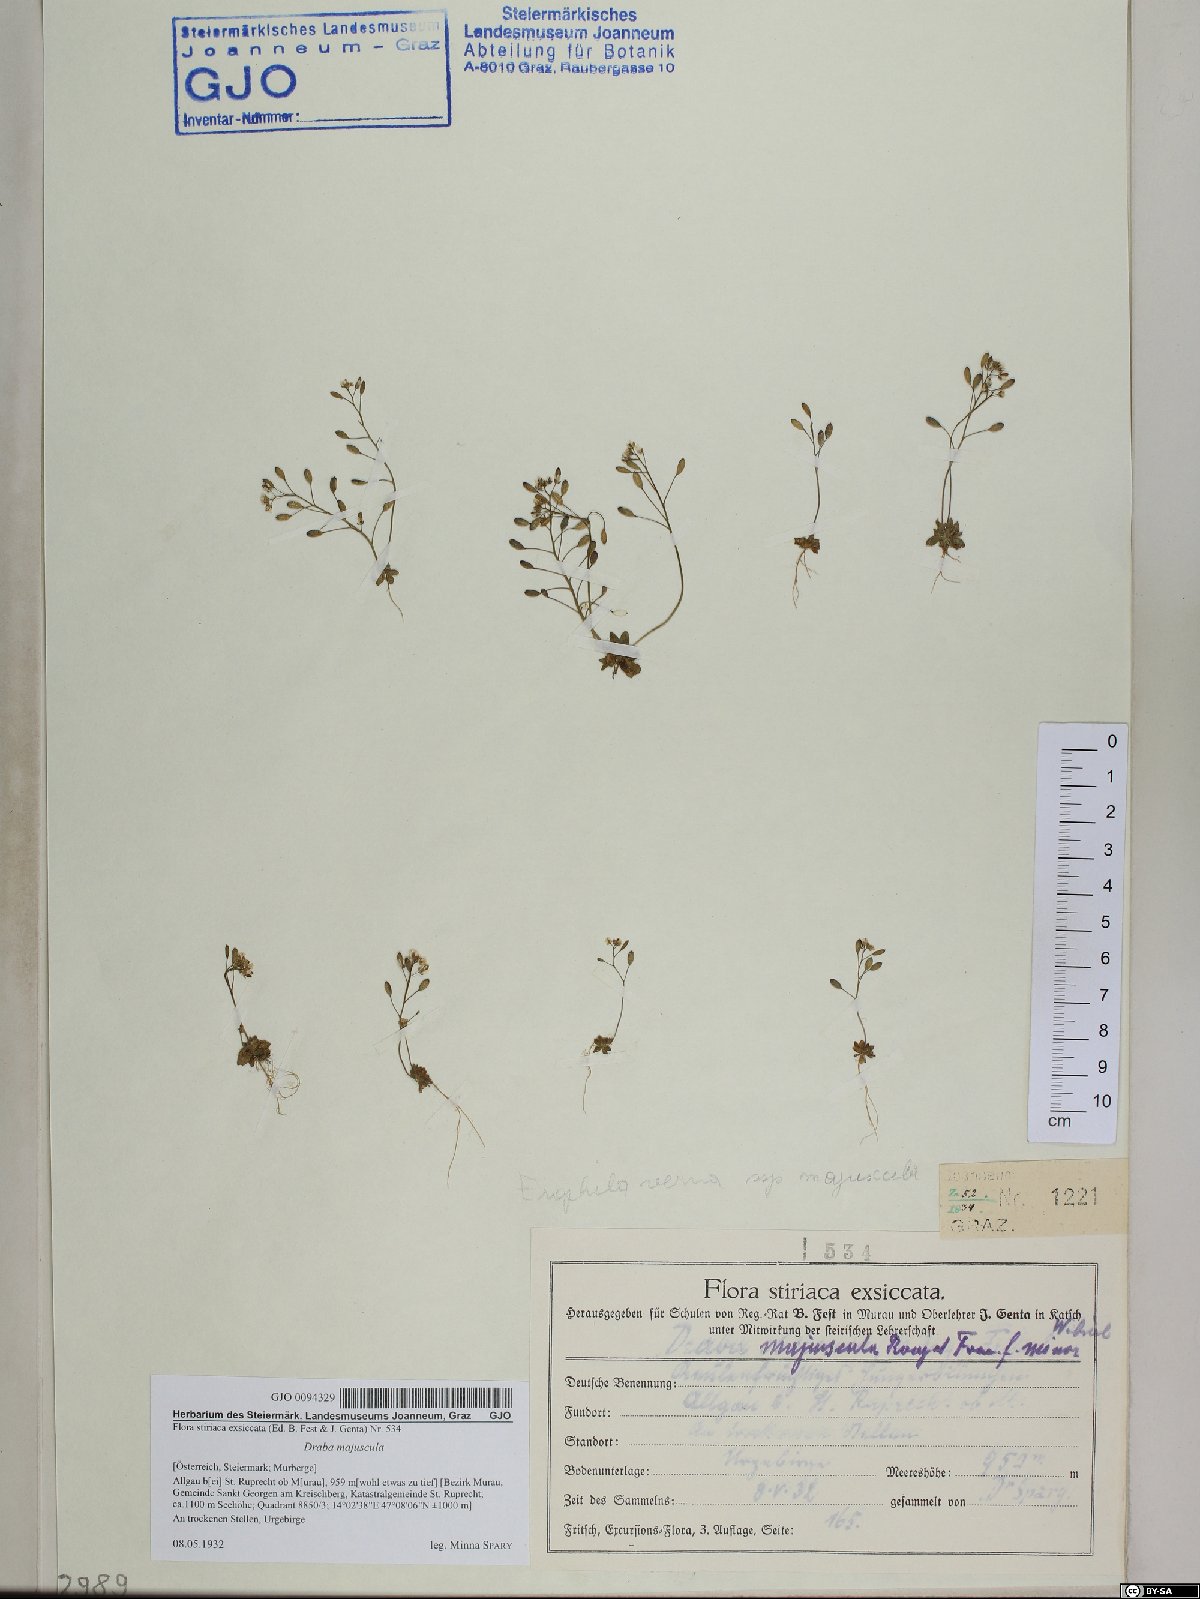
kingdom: Plantae
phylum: Tracheophyta
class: Magnoliopsida
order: Brassicales
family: Brassicaceae
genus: Draba
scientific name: Draba verna
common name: Spring draba
